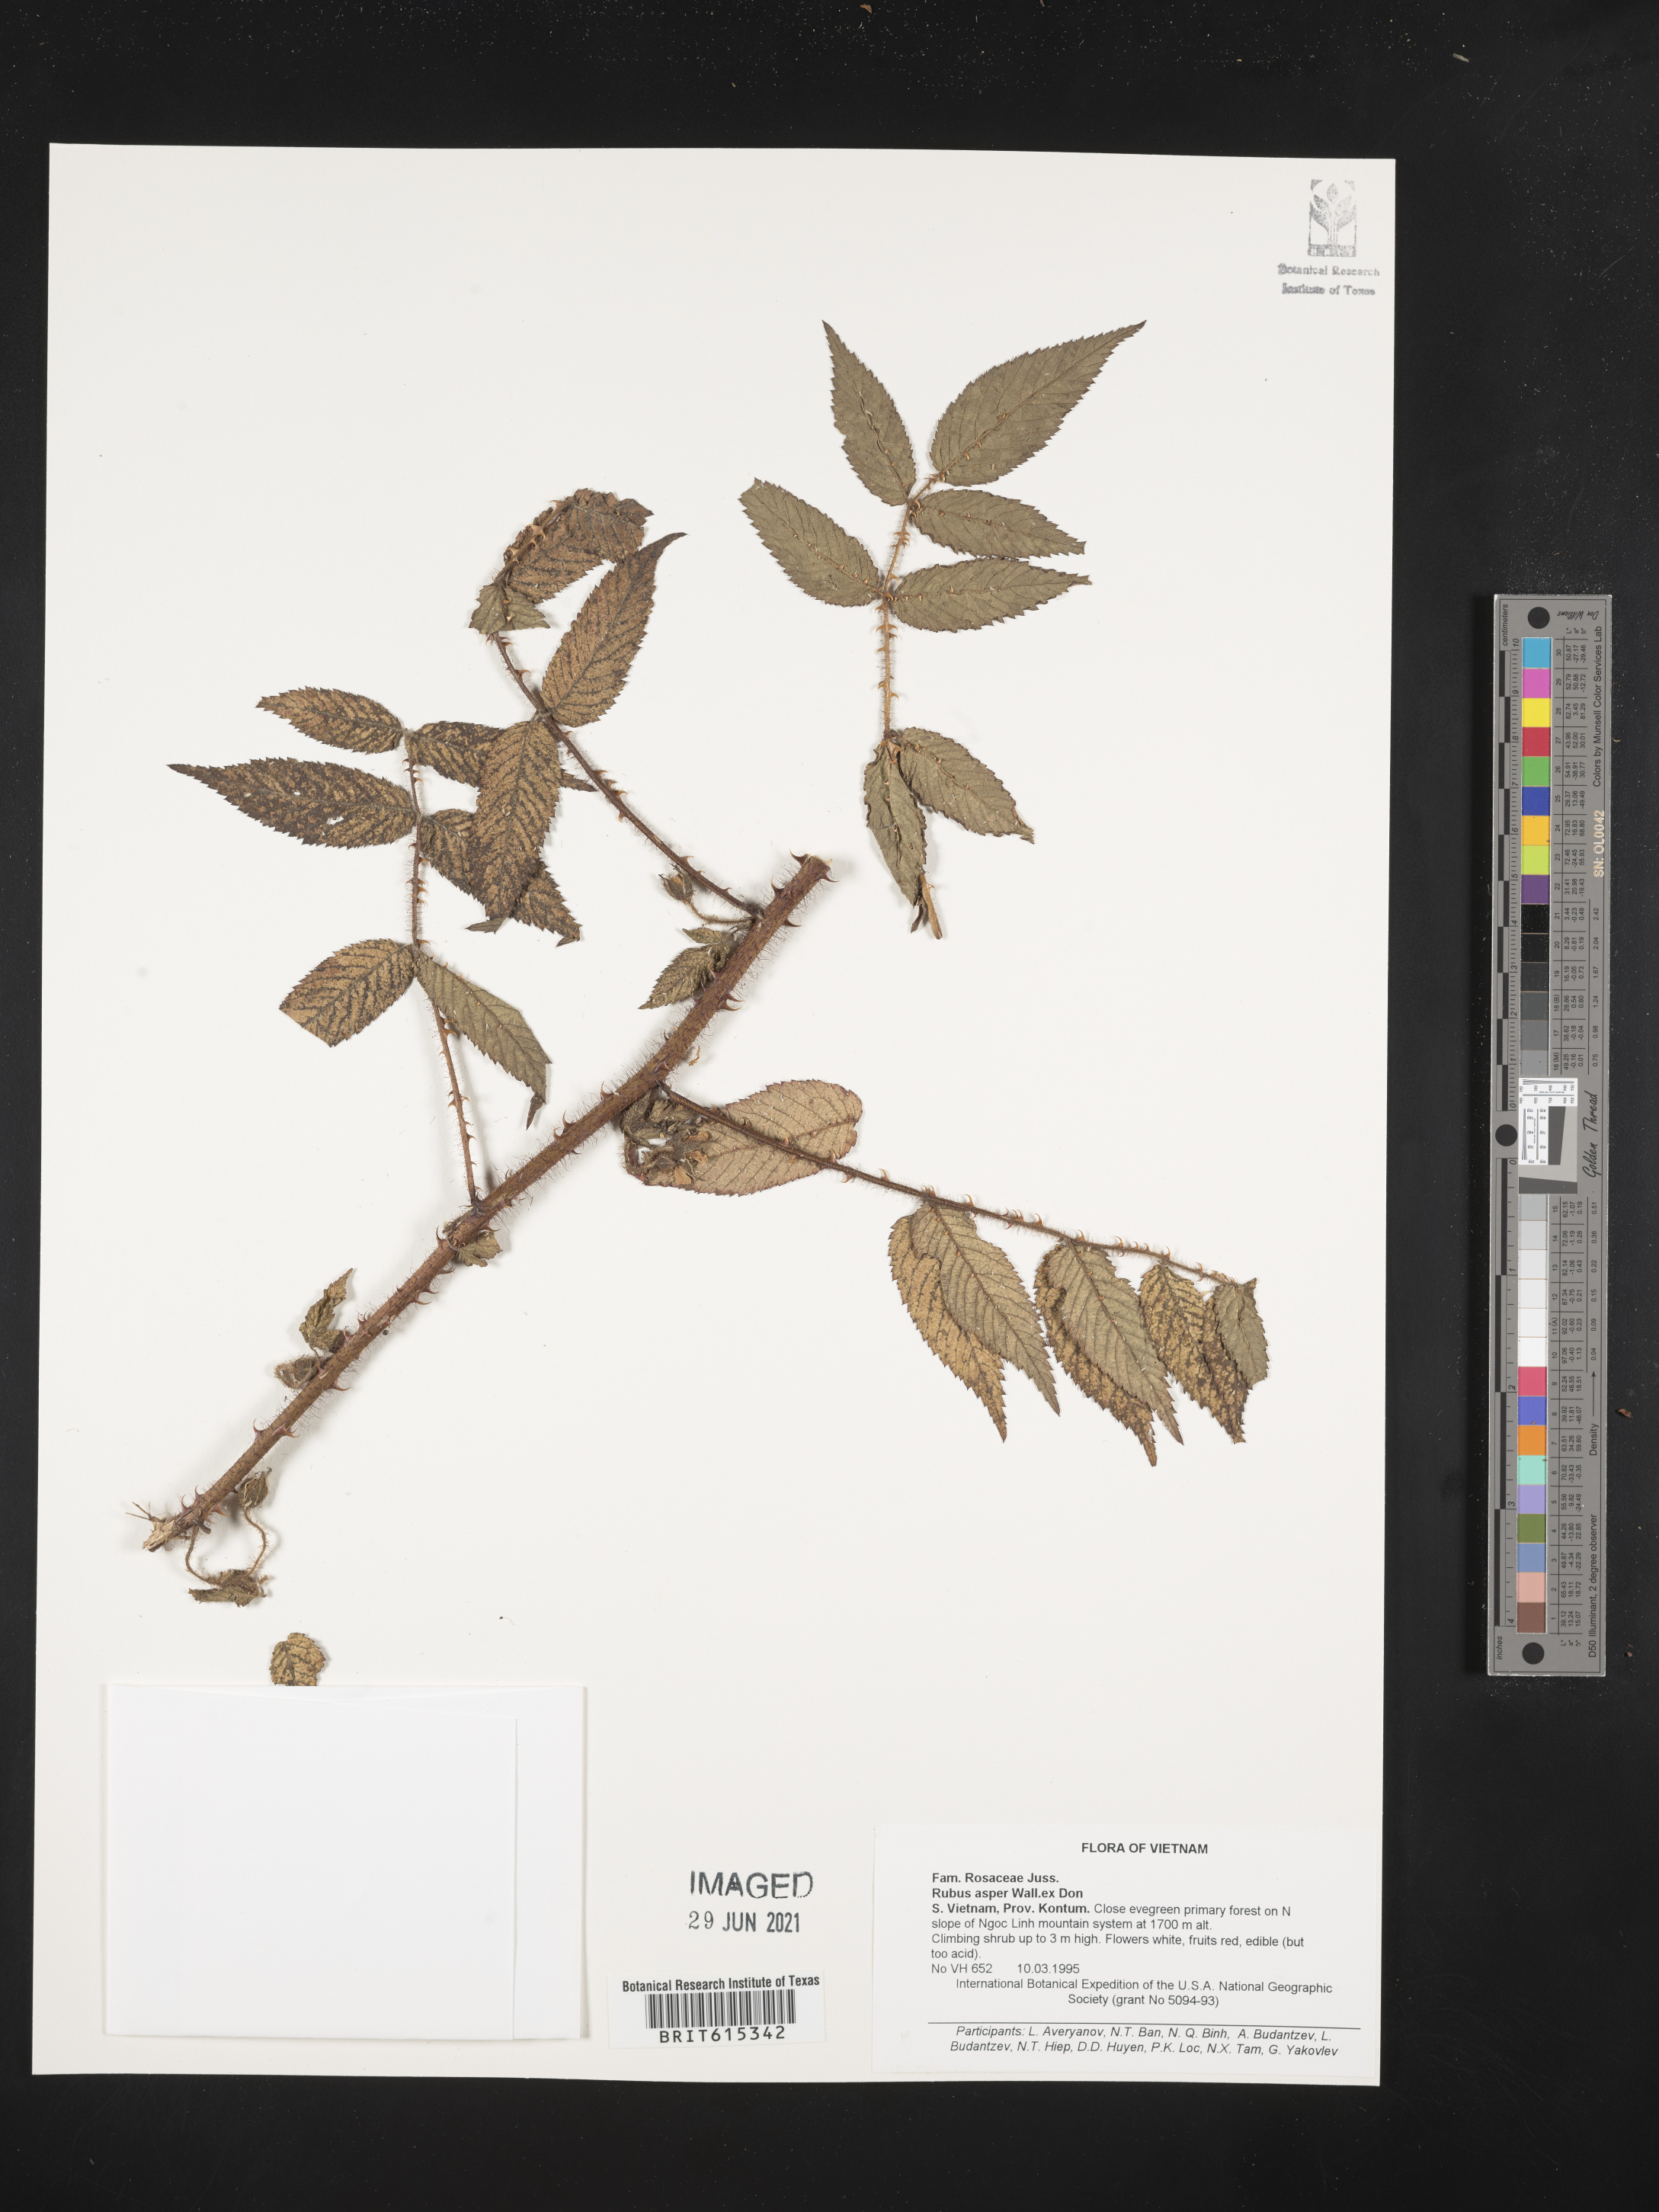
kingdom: Plantae
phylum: Tracheophyta
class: Magnoliopsida
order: Rosales
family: Rosaceae
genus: Rubus
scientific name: Rubus sumatranus
